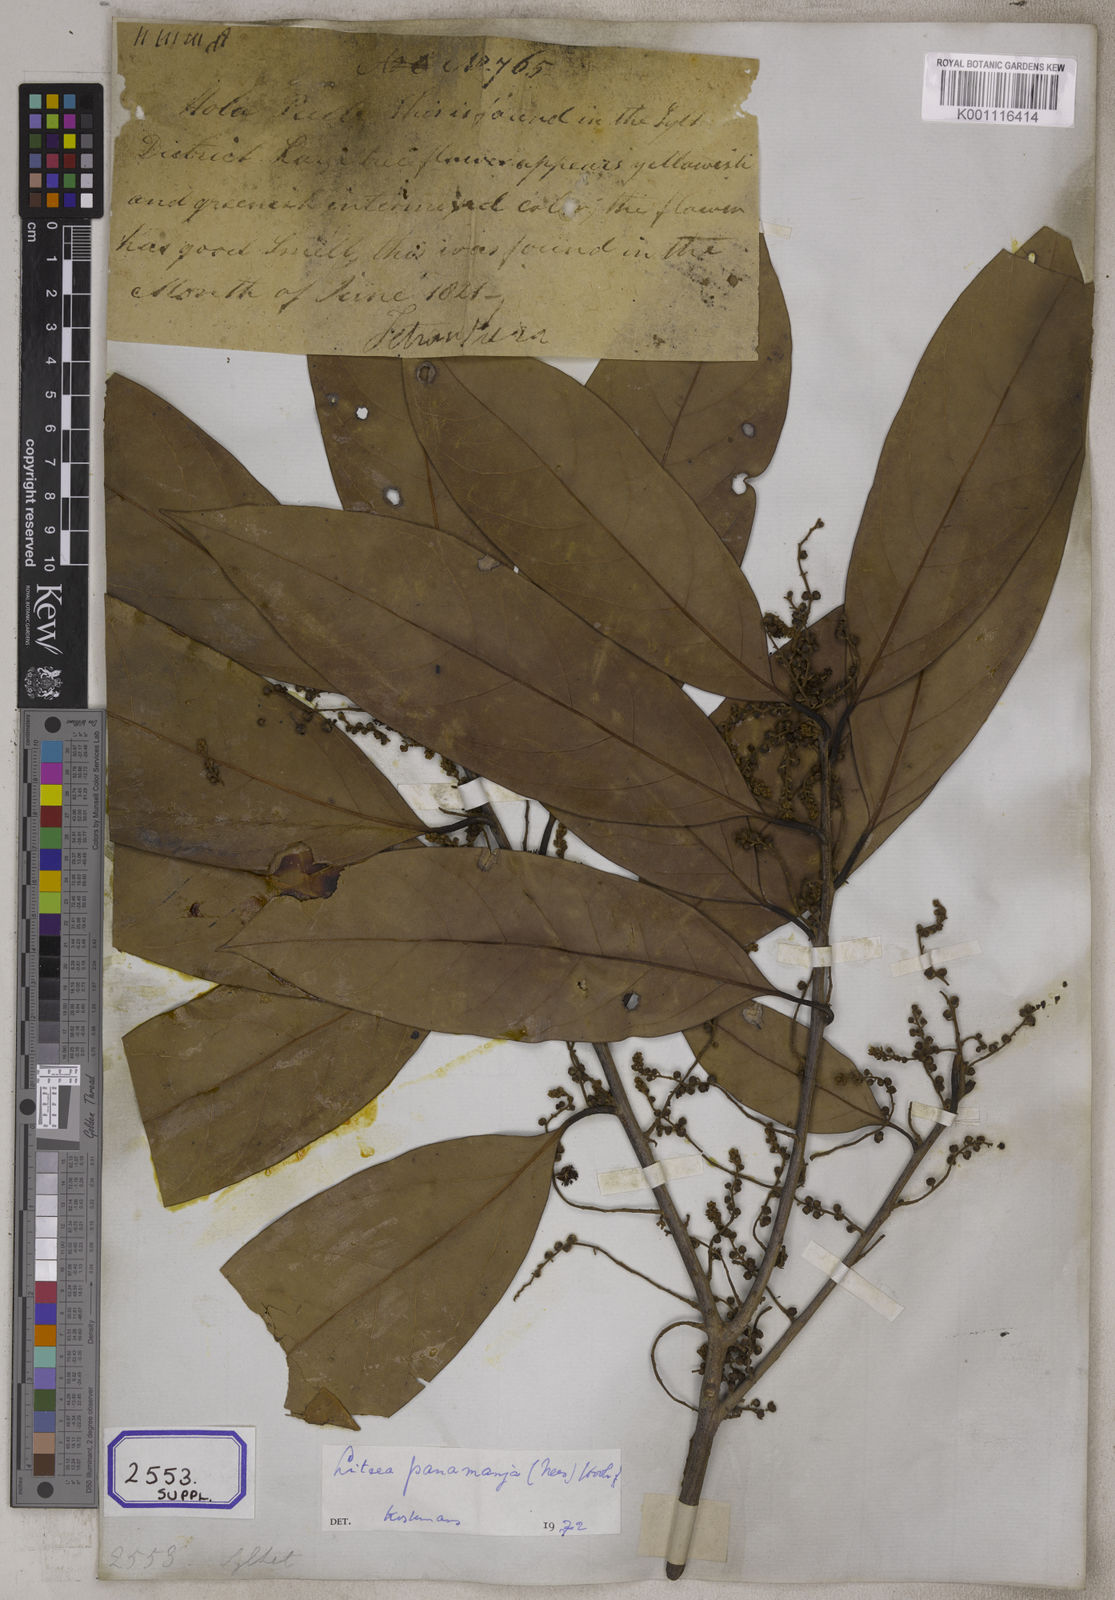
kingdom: Plantae
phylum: Tracheophyta
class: Magnoliopsida
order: Laurales
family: Lauraceae
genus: Litsea
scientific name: Litsea panamanja
